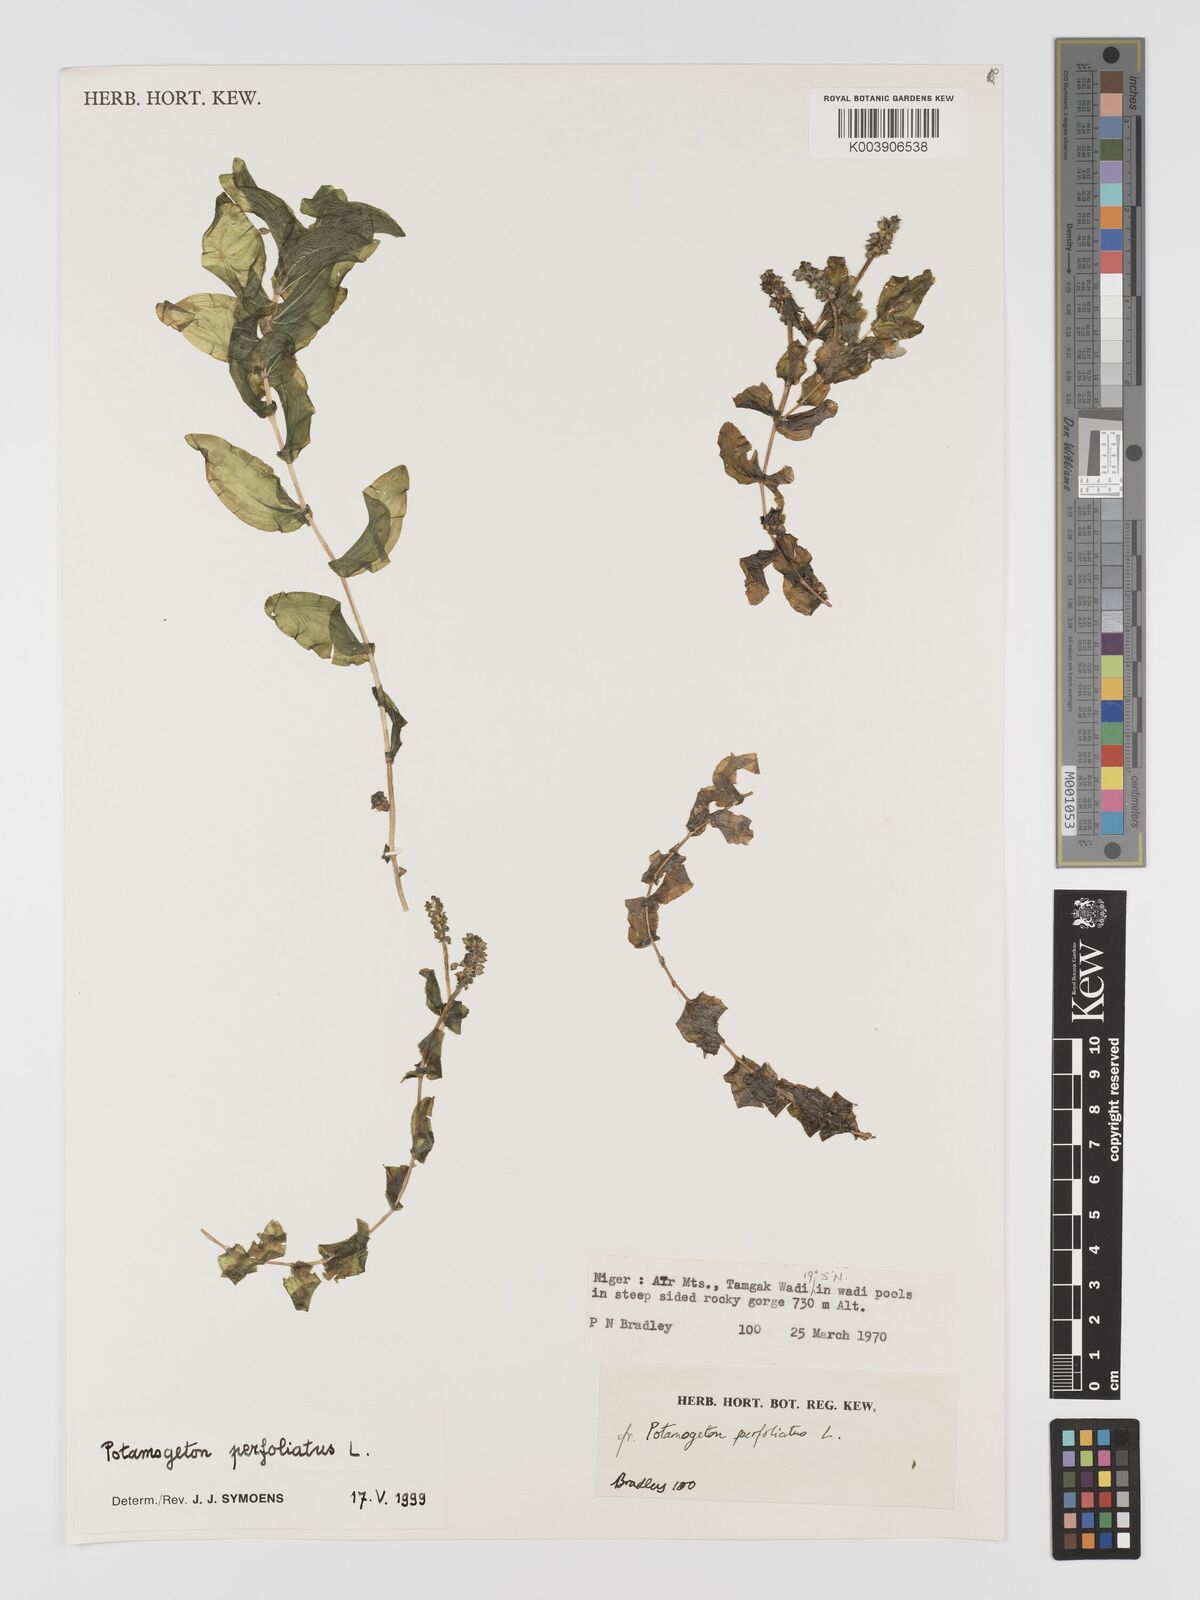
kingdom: Plantae
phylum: Tracheophyta
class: Liliopsida
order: Alismatales
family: Potamogetonaceae
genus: Potamogeton
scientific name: Potamogeton perfoliatus
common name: Perfoliate pondweed
